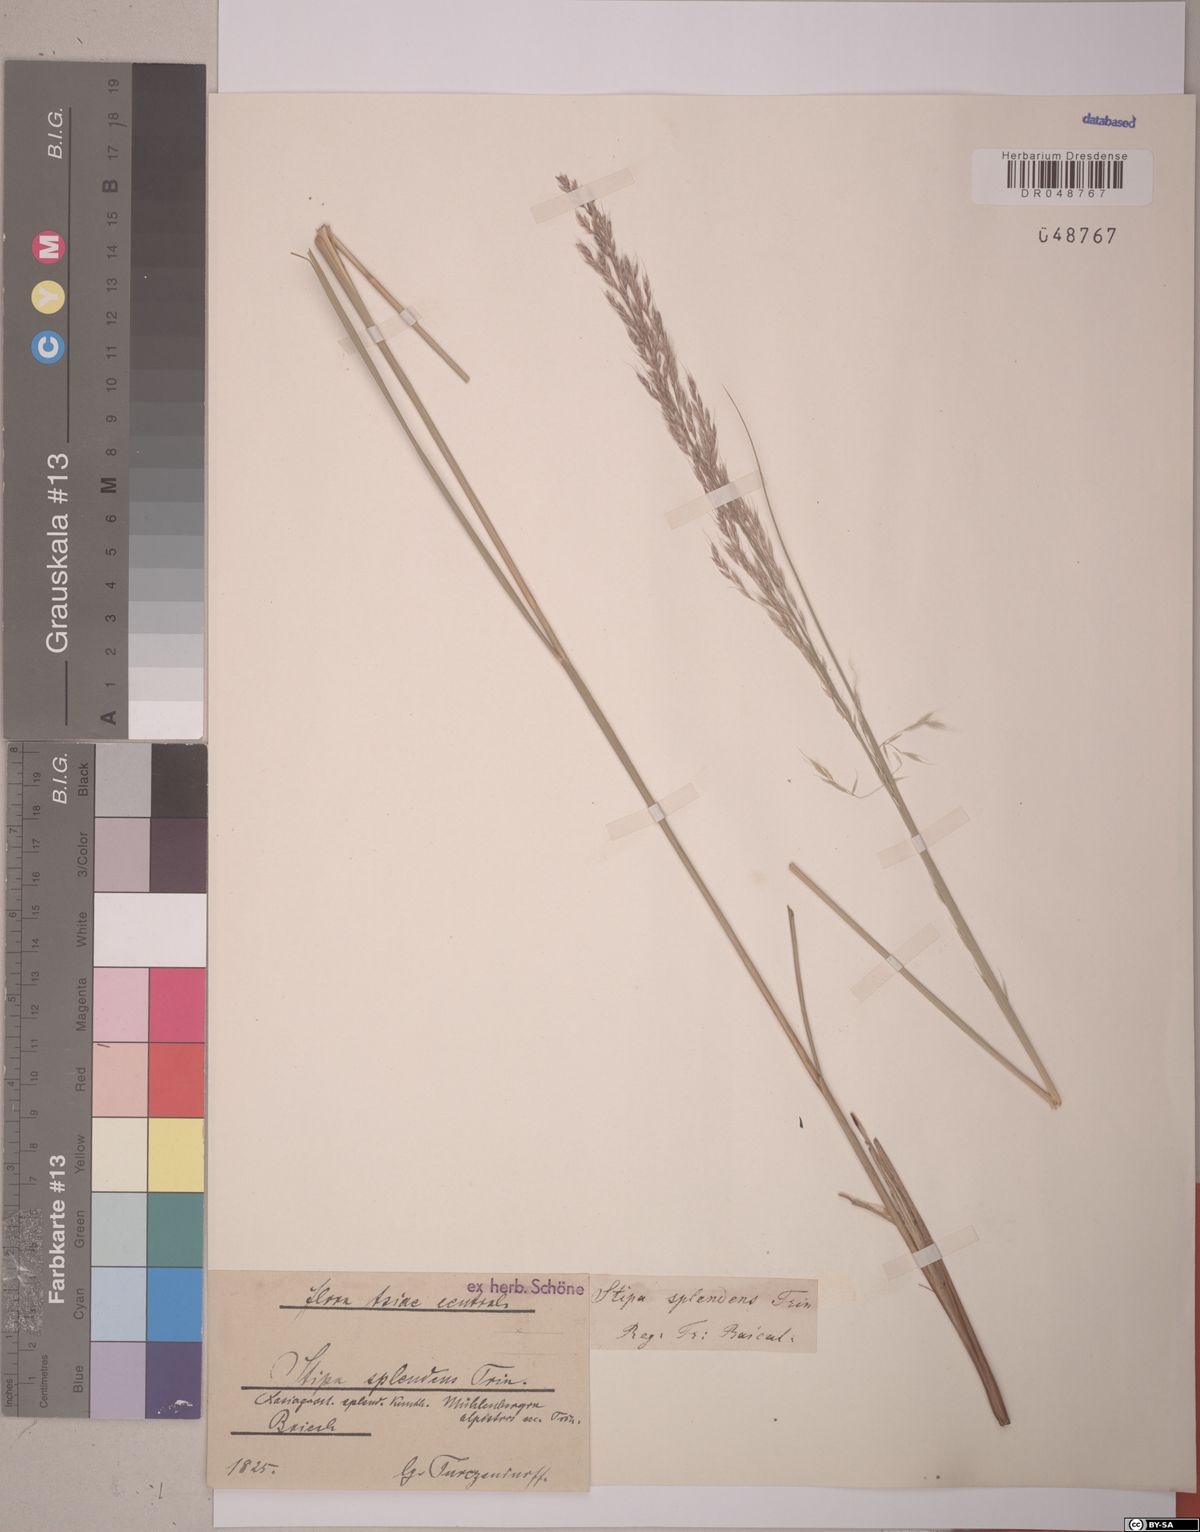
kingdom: Plantae
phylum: Tracheophyta
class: Liliopsida
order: Poales
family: Poaceae
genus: Neotrinia
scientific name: Neotrinia splendens
